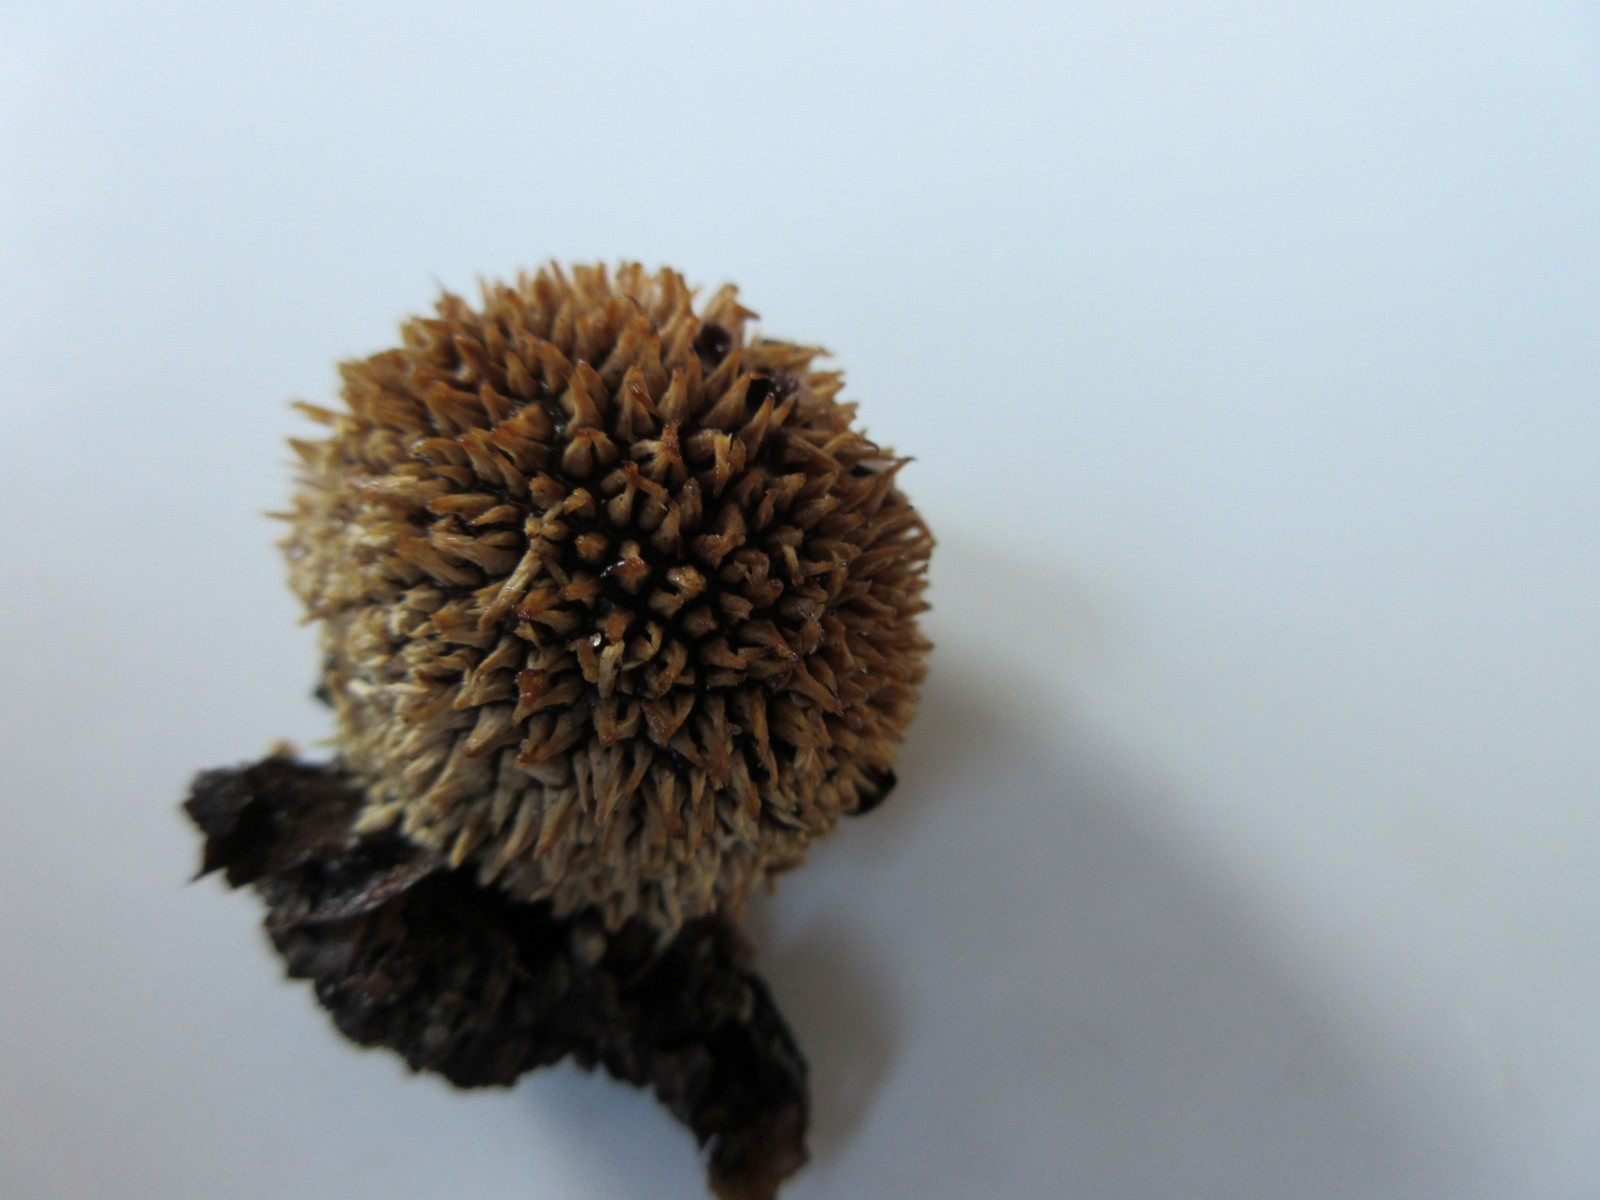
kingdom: Fungi
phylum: Basidiomycota
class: Agaricomycetes
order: Agaricales
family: Lycoperdaceae
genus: Lycoperdon
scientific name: Lycoperdon echinatum
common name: pindsvine-støvbold
